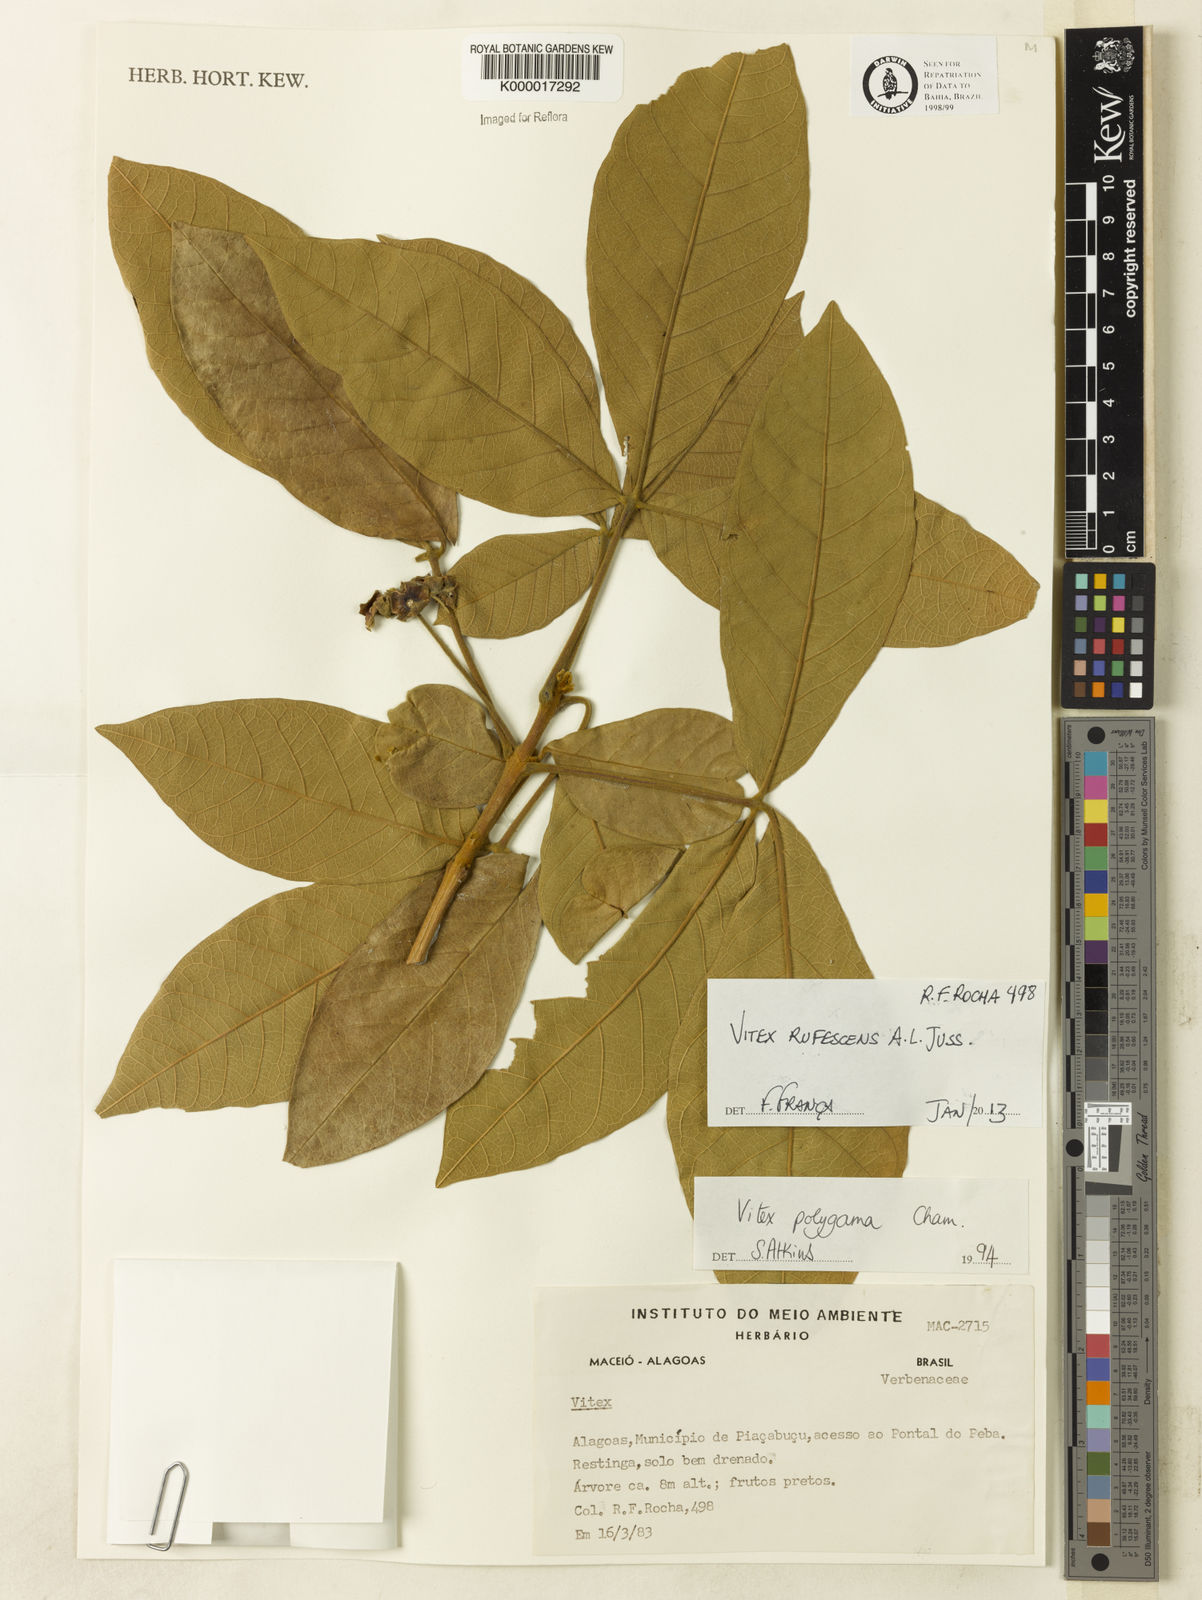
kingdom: Plantae
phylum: Tracheophyta
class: Magnoliopsida
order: Lamiales
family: Lamiaceae
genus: Vitex
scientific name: Vitex rufescens
